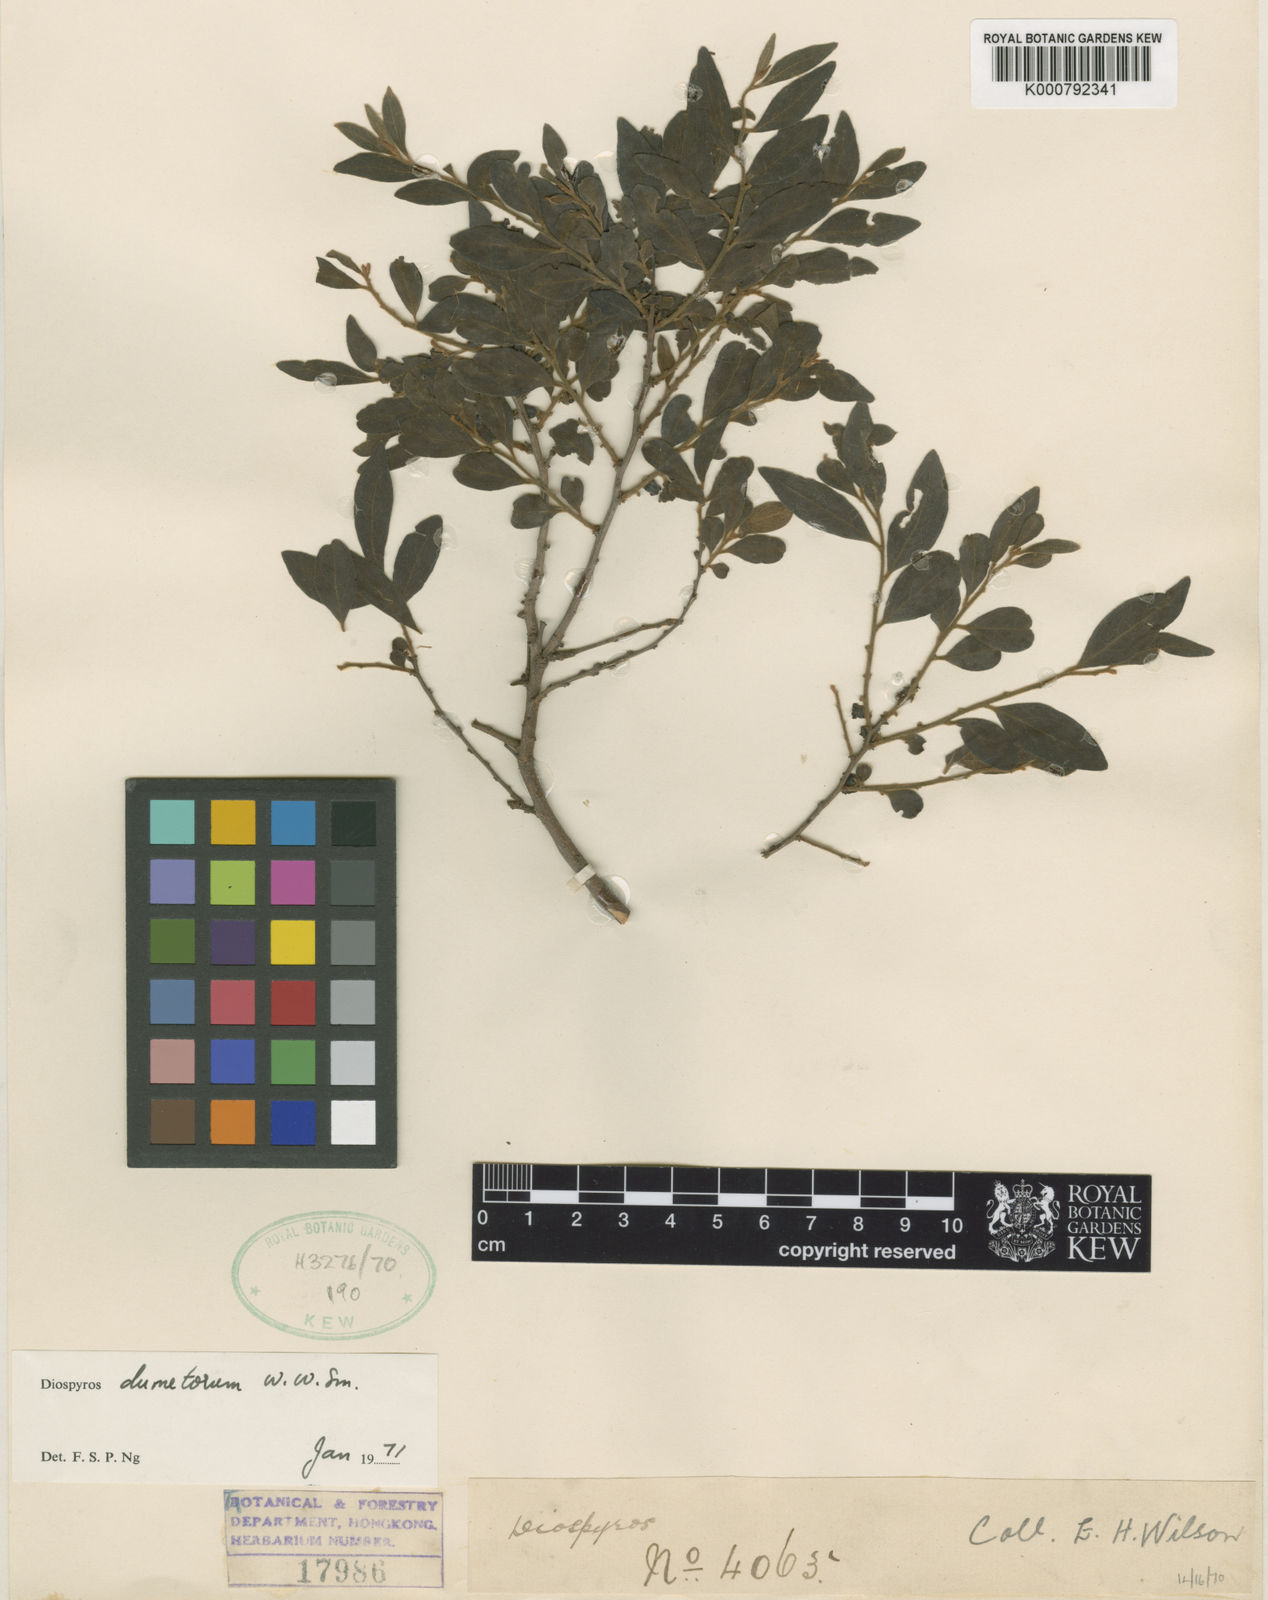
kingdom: Plantae
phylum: Tracheophyta
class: Magnoliopsida
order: Ericales
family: Ebenaceae
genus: Diospyros
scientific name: Diospyros dumetorum
